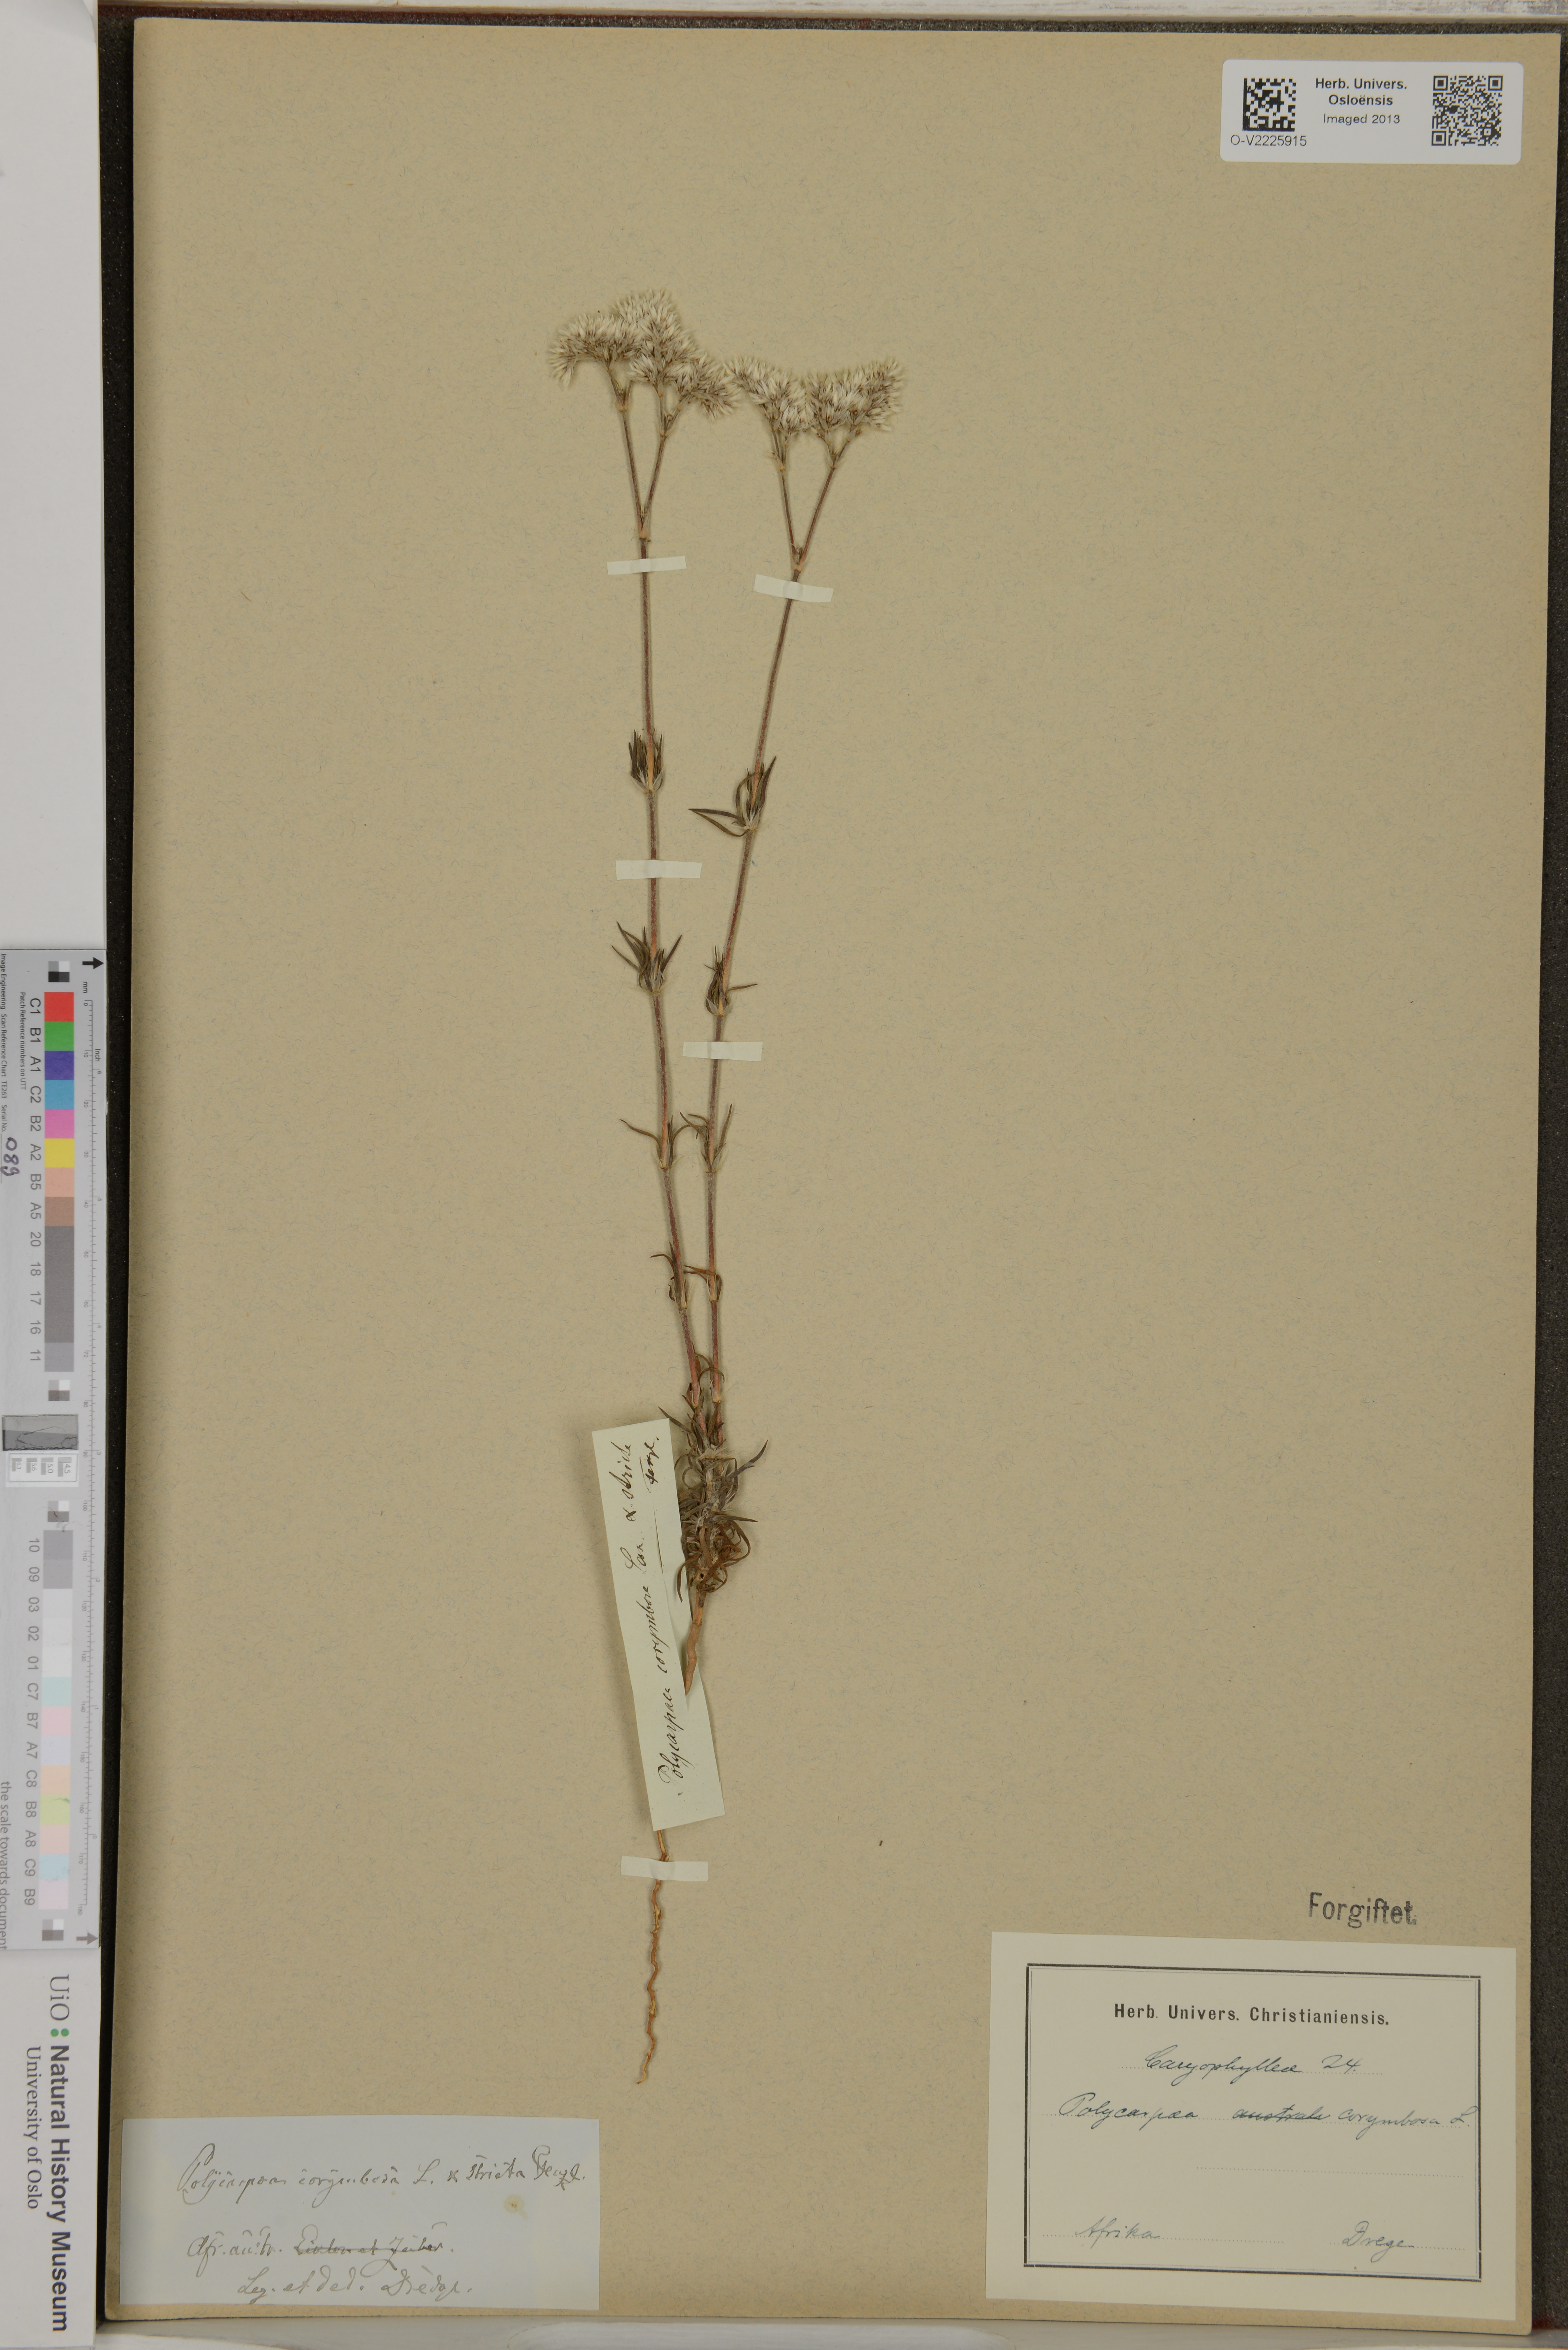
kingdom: Plantae
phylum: Tracheophyta
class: Magnoliopsida
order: Caryophyllales
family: Caryophyllaceae
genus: Polycarpon
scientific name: Polycarpon australe
